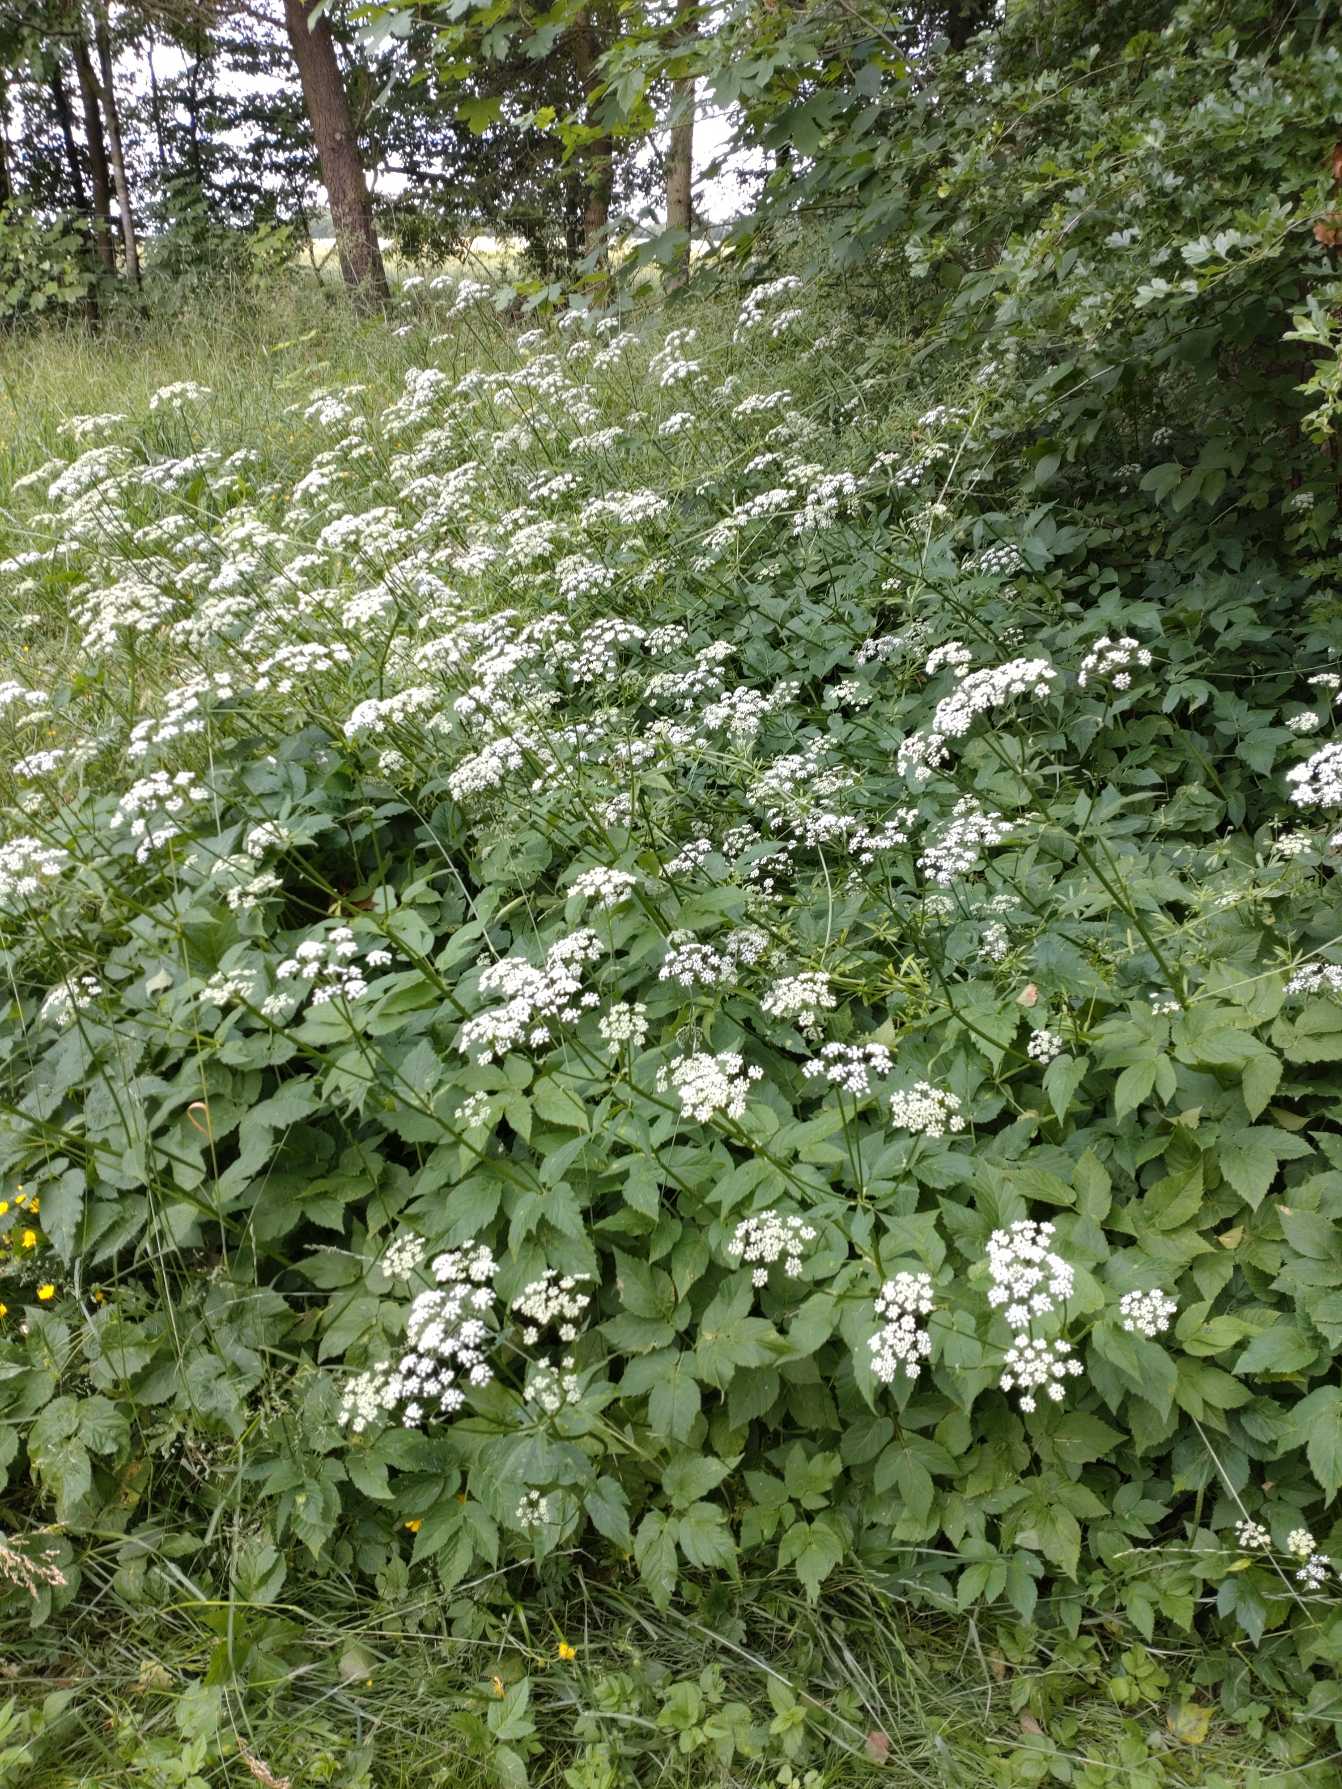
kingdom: Plantae
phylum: Tracheophyta
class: Magnoliopsida
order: Apiales
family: Apiaceae
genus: Aegopodium
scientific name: Aegopodium podagraria
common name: Skvalderkål
